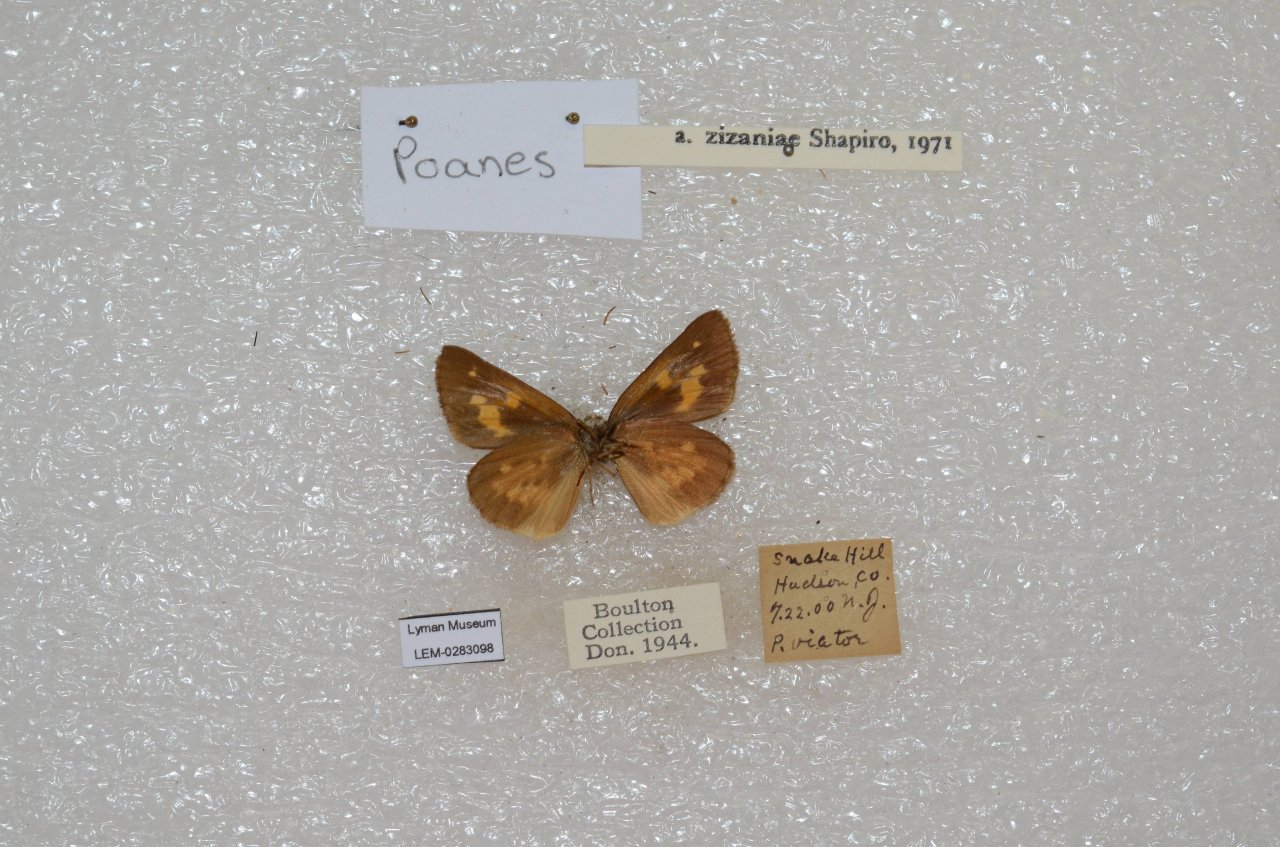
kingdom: Animalia
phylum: Arthropoda
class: Insecta
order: Lepidoptera
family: Hesperiidae
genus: Poanes
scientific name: Poanes viator
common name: Broad-winged Skipper
